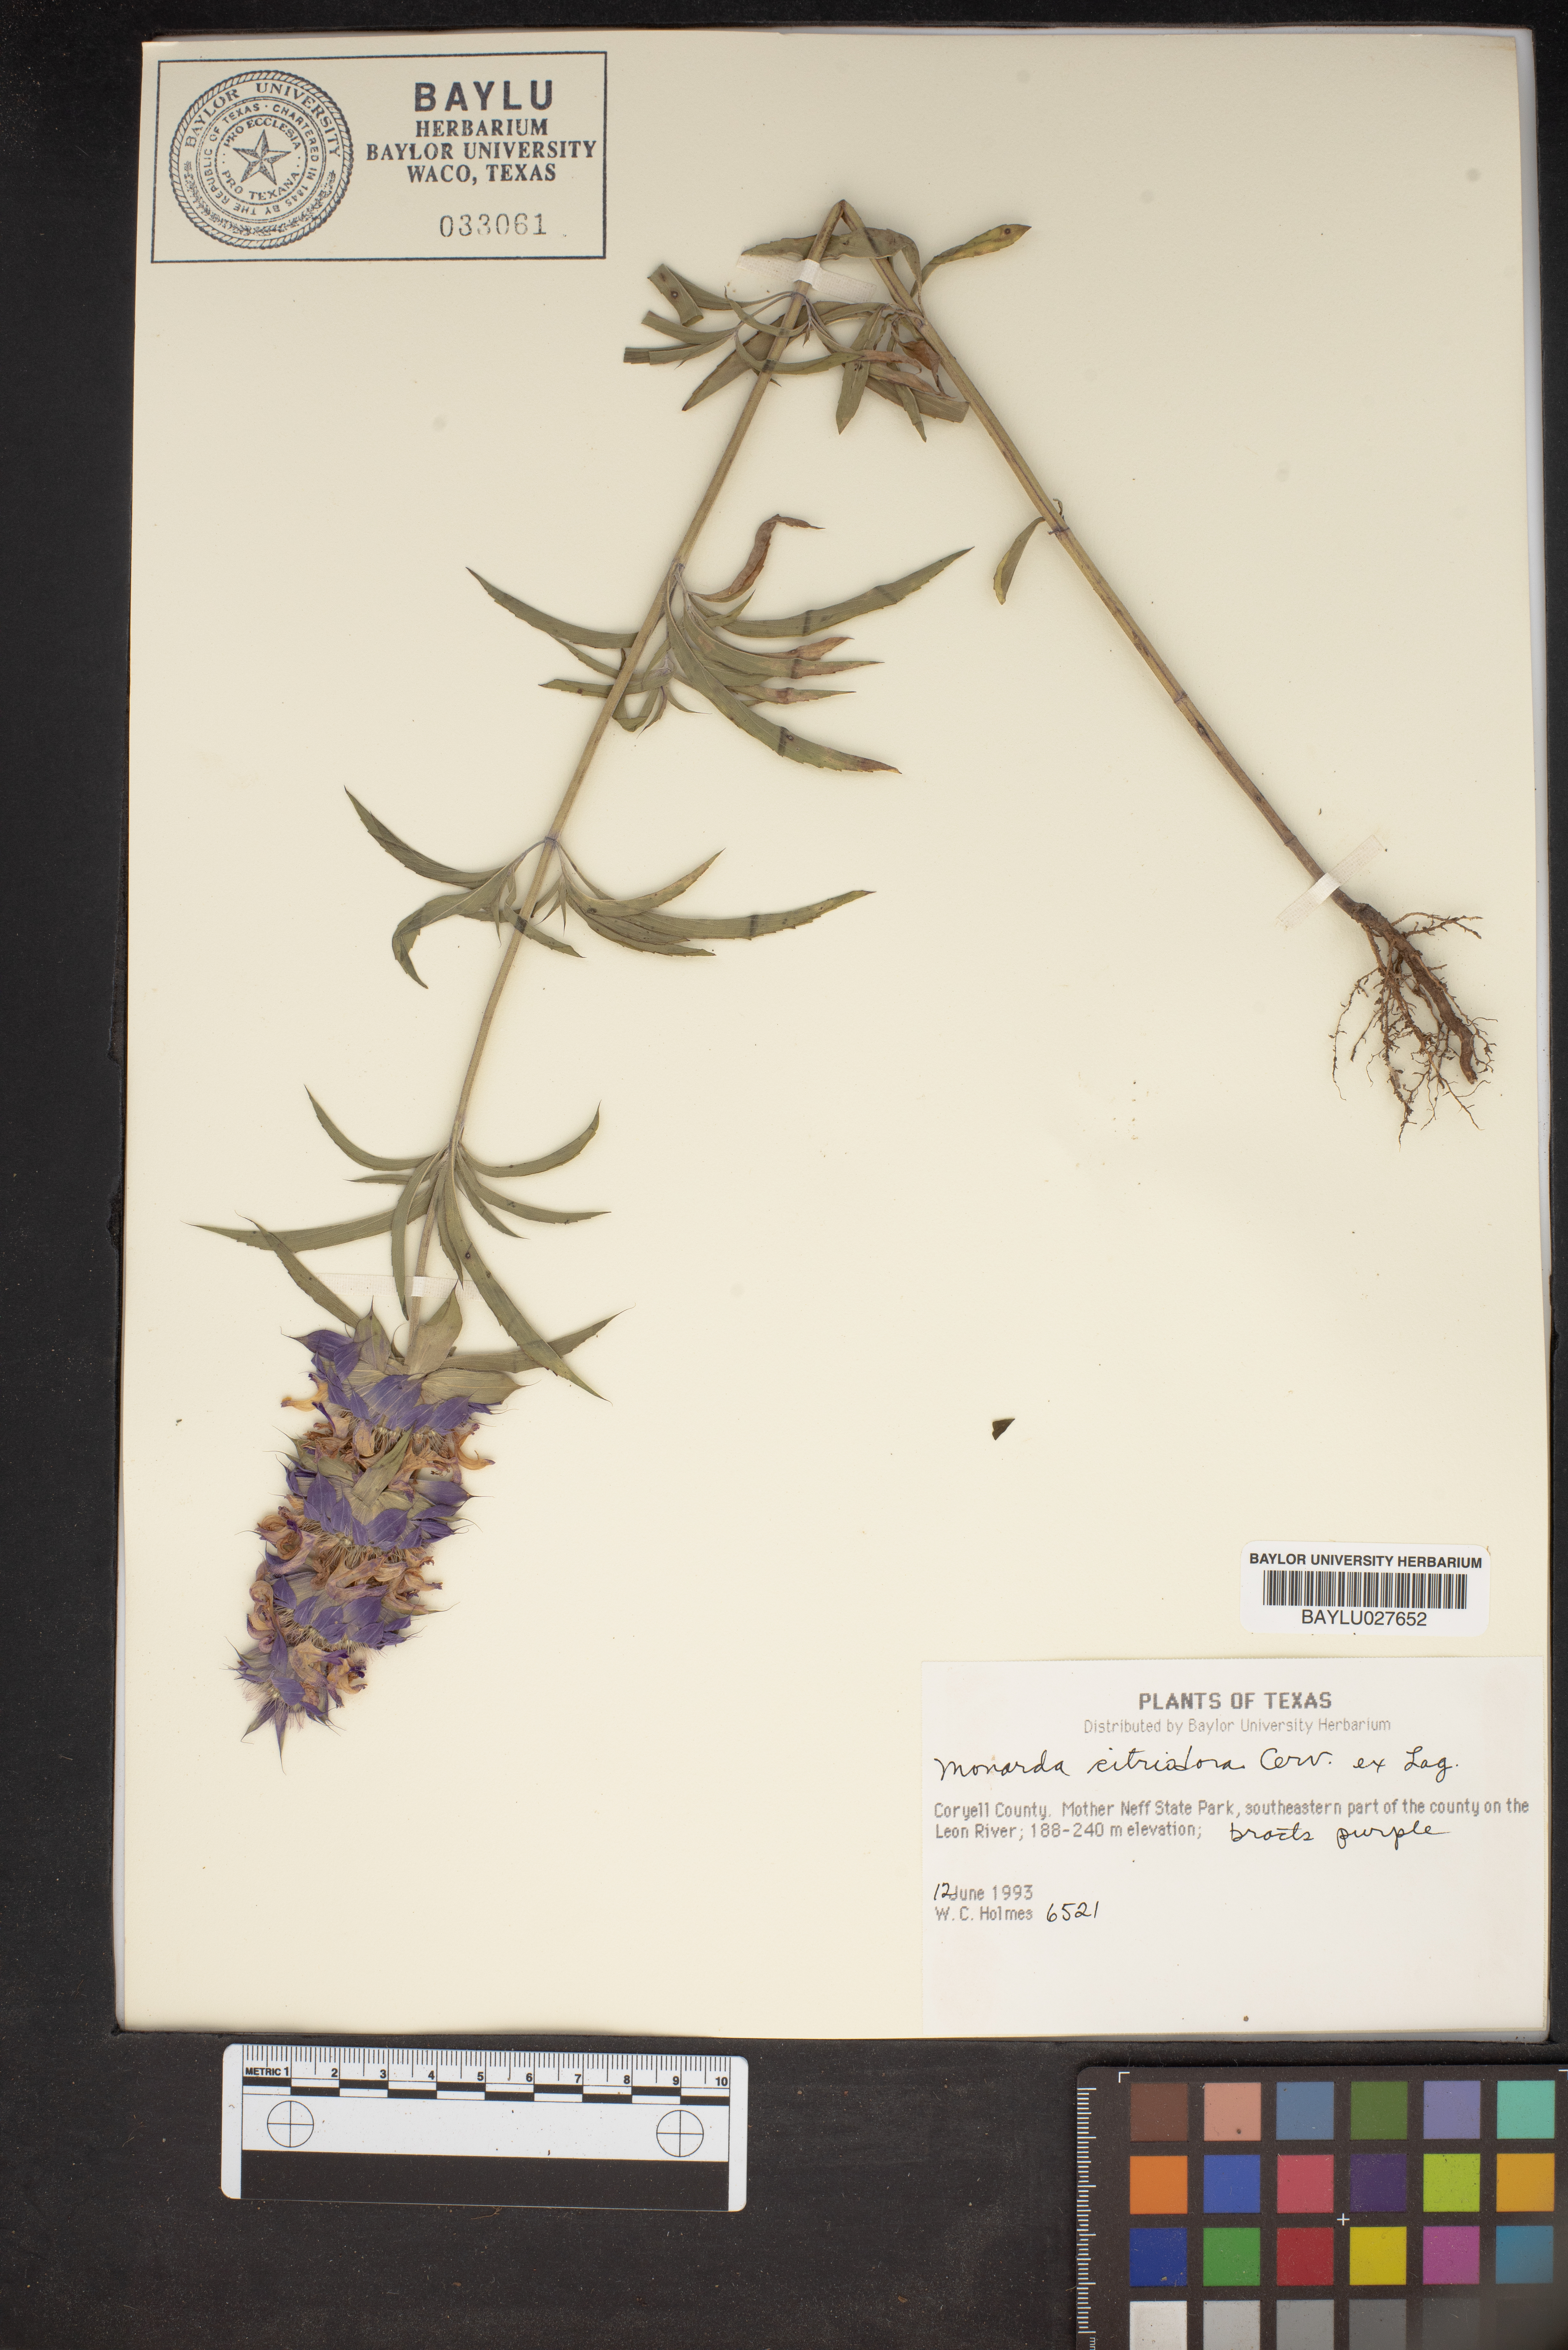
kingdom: Plantae
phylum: Tracheophyta
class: Magnoliopsida
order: Lamiales
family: Lamiaceae
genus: Monarda
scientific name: Monarda citriodora
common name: Lemon beebalm
